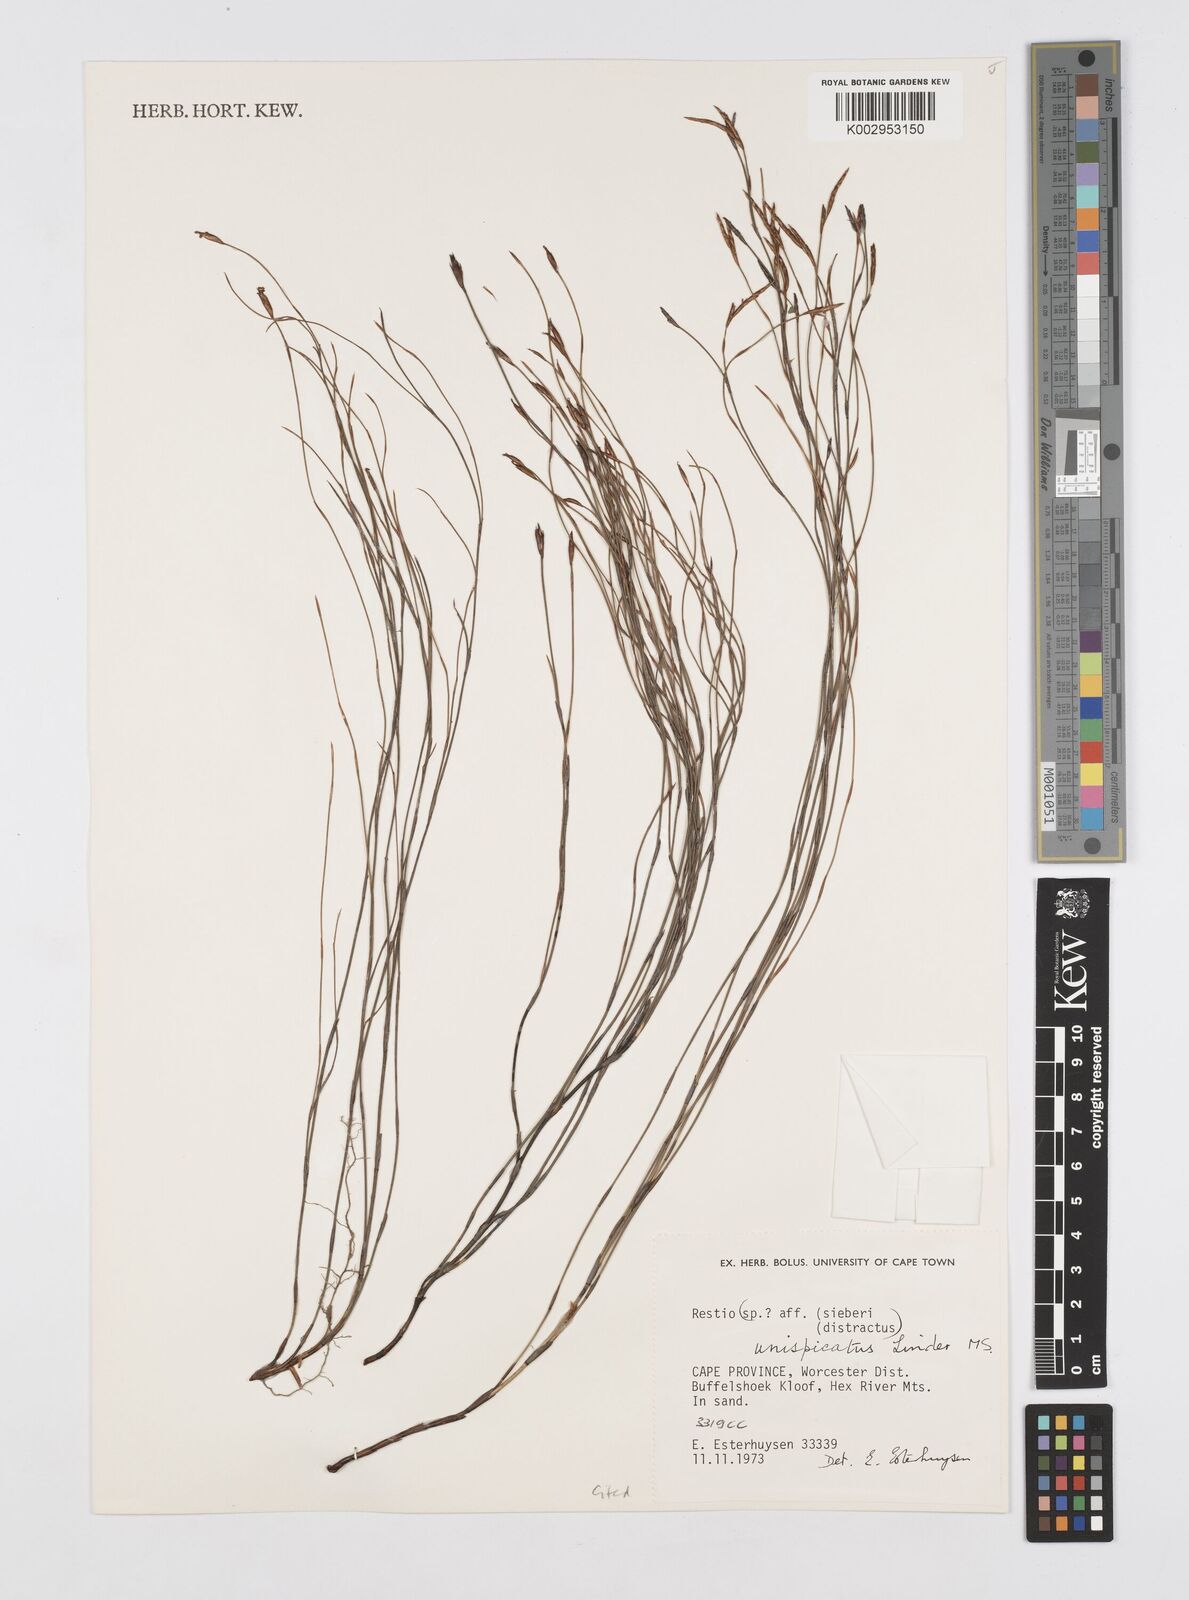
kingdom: Plantae
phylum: Tracheophyta
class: Liliopsida
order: Poales
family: Restionaceae
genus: Restio
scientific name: Restio unispicatus
